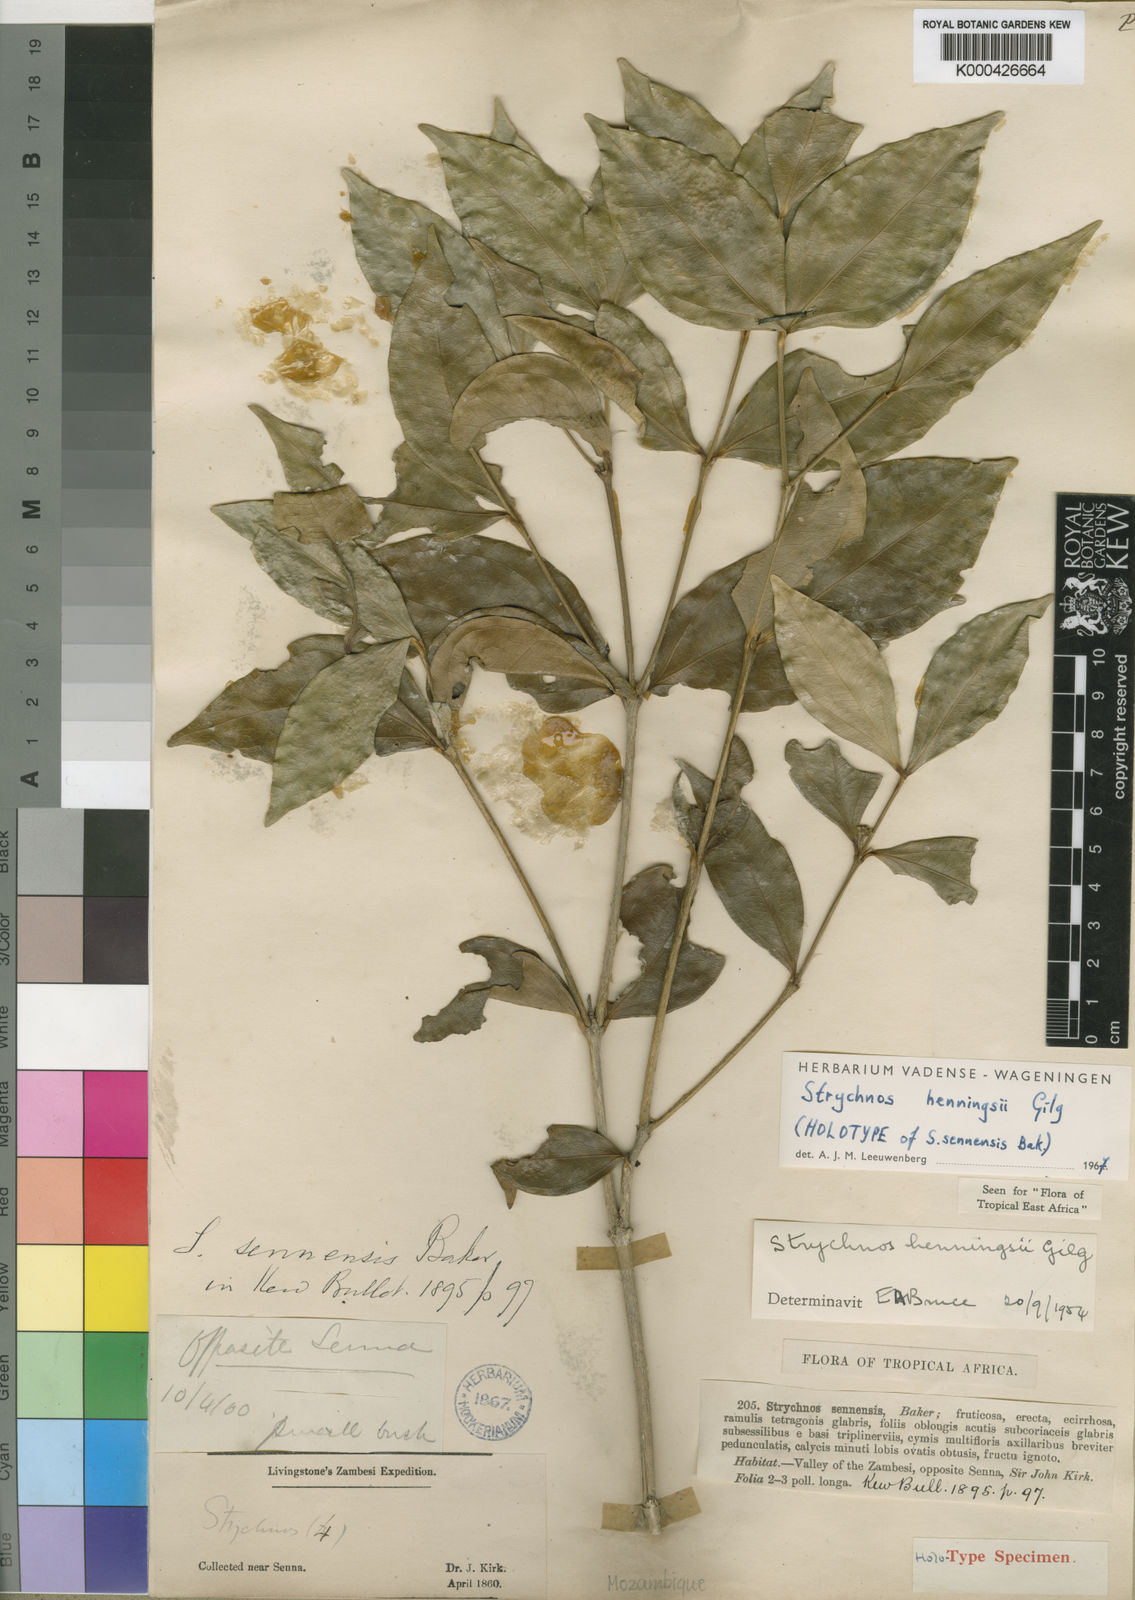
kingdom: Plantae
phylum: Tracheophyta
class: Magnoliopsida
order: Gentianales
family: Loganiaceae
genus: Strychnos
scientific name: Strychnos henningsii
